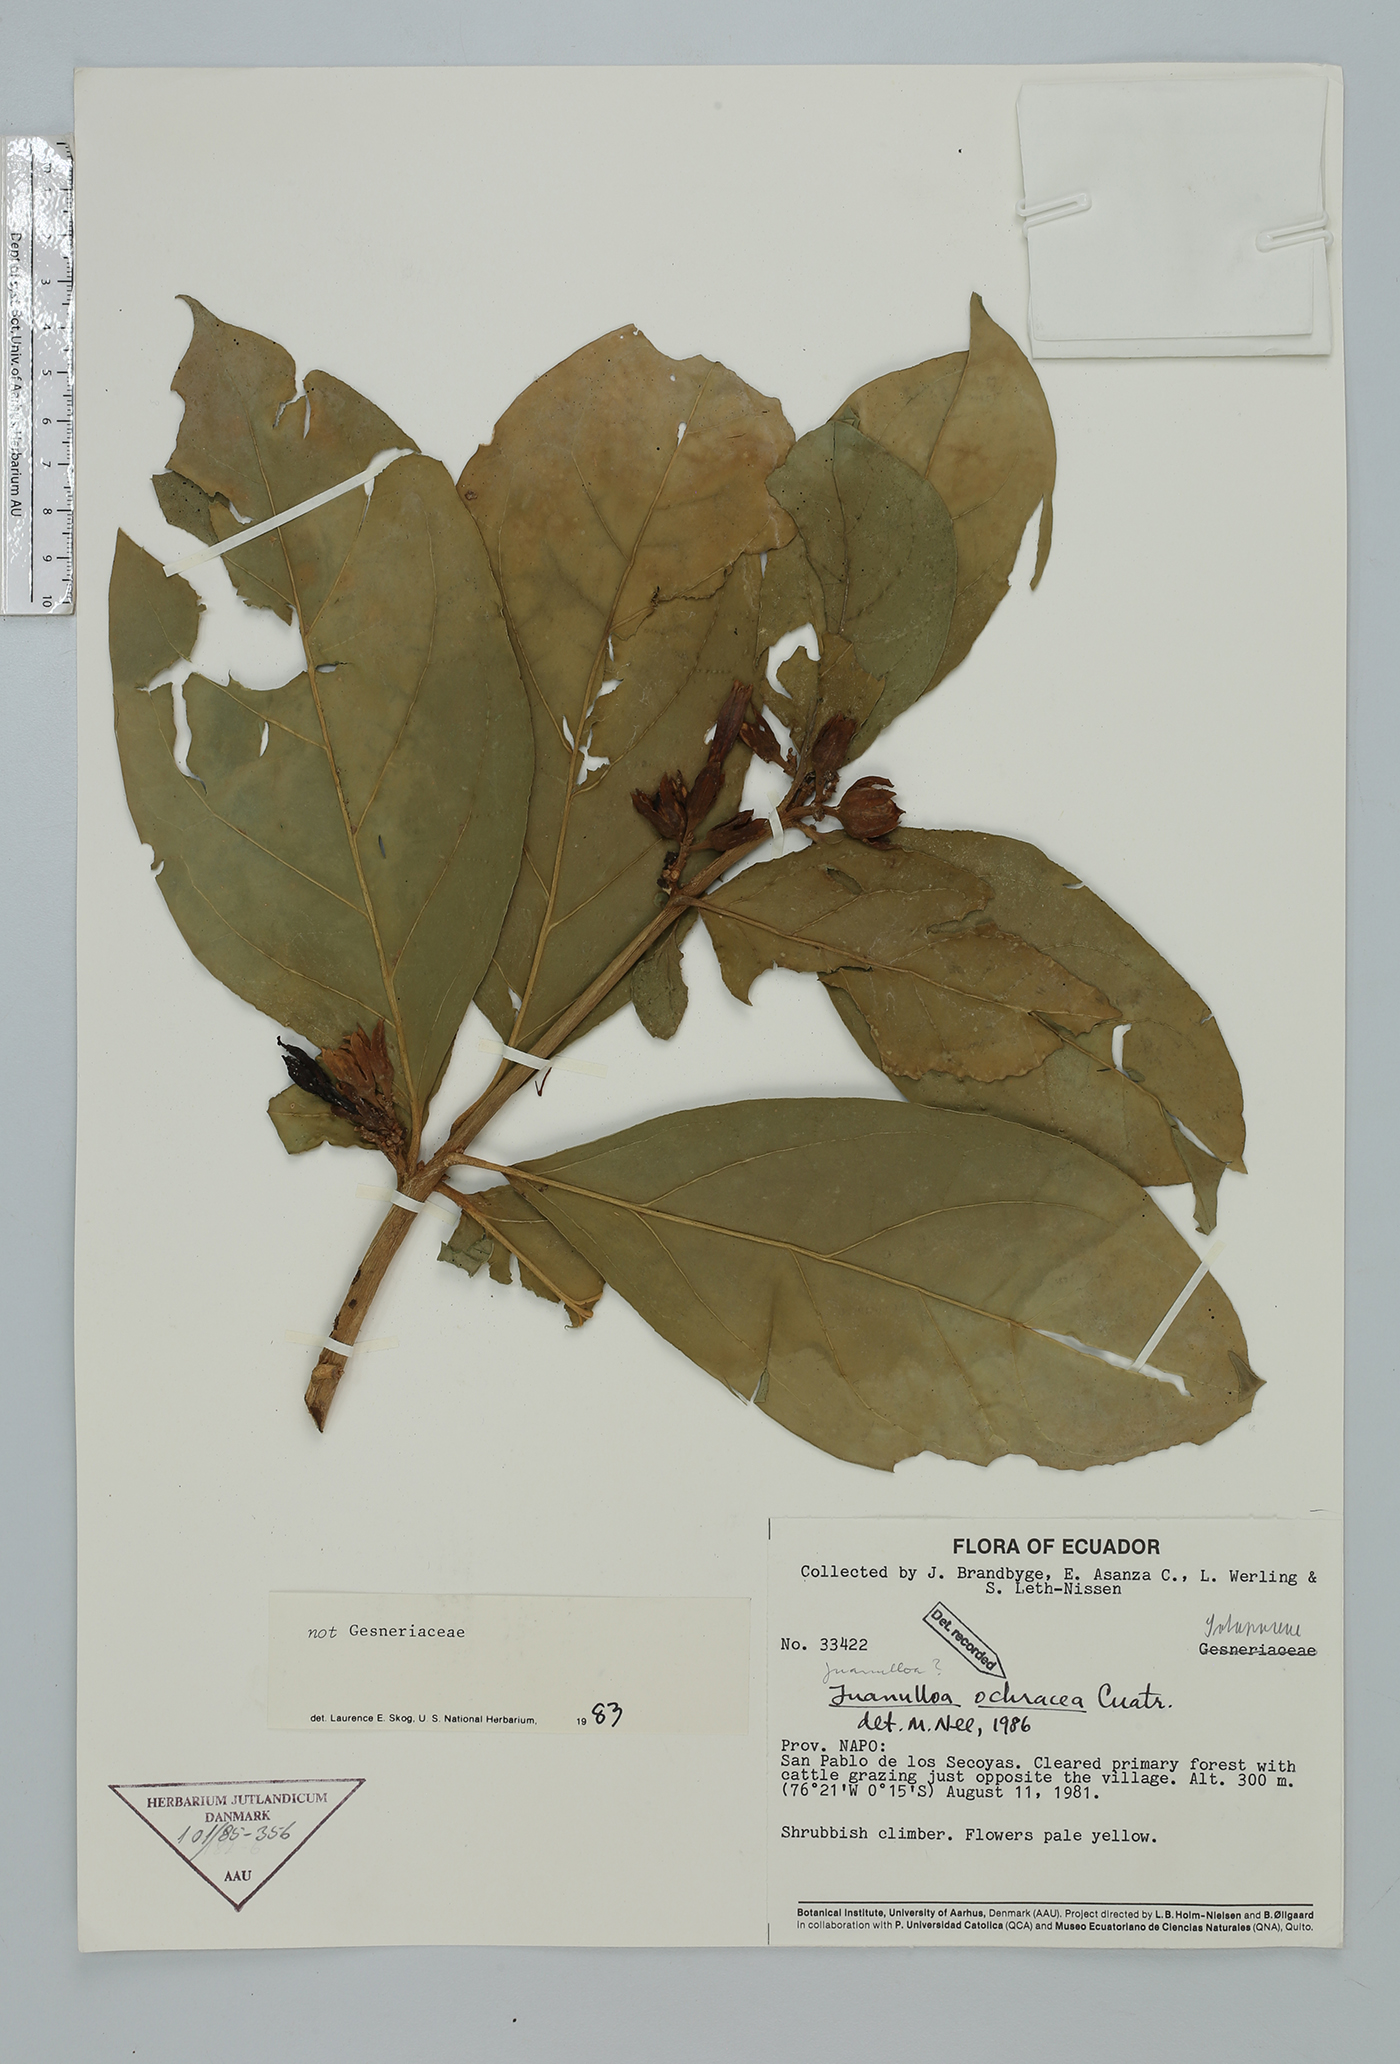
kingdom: Plantae
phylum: Tracheophyta
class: Magnoliopsida
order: Solanales
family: Solanaceae
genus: Hawkesiophyton
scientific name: Hawkesiophyton ochraceum
